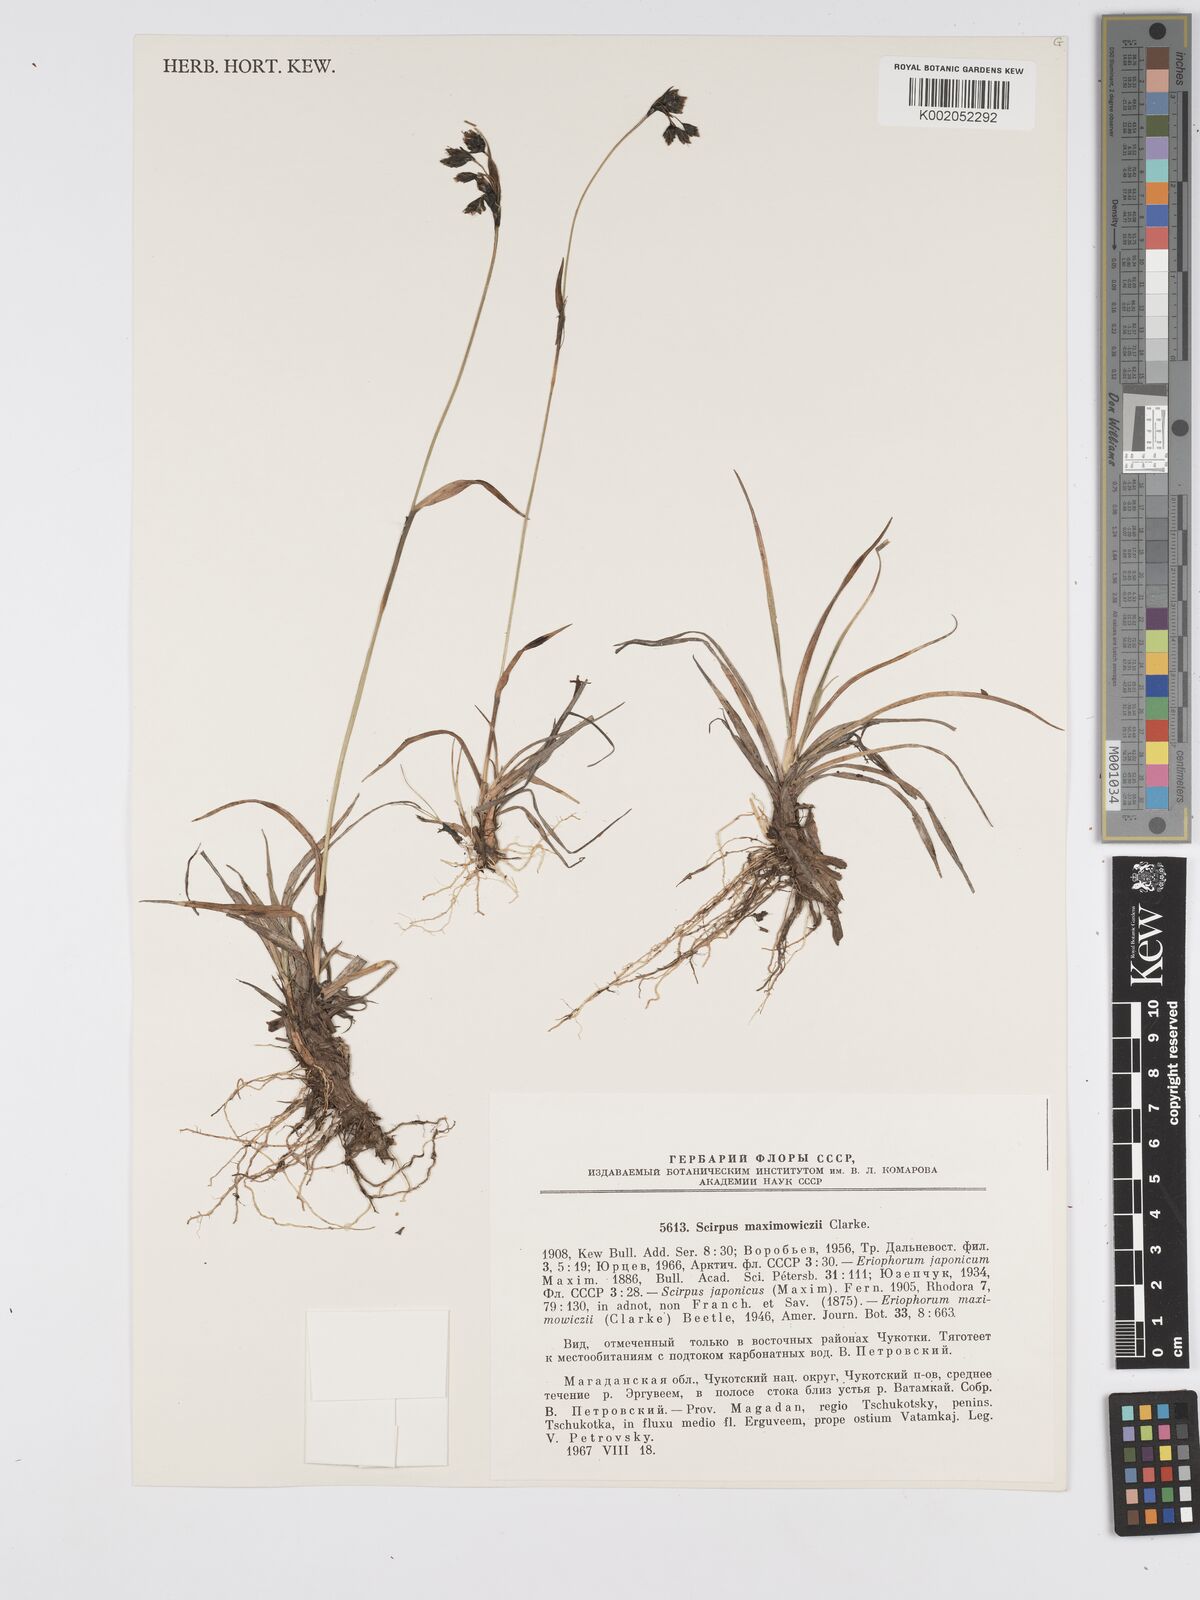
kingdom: Plantae
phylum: Tracheophyta
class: Liliopsida
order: Poales
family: Cyperaceae
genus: Scirpus
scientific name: Scirpus maximowiczii
